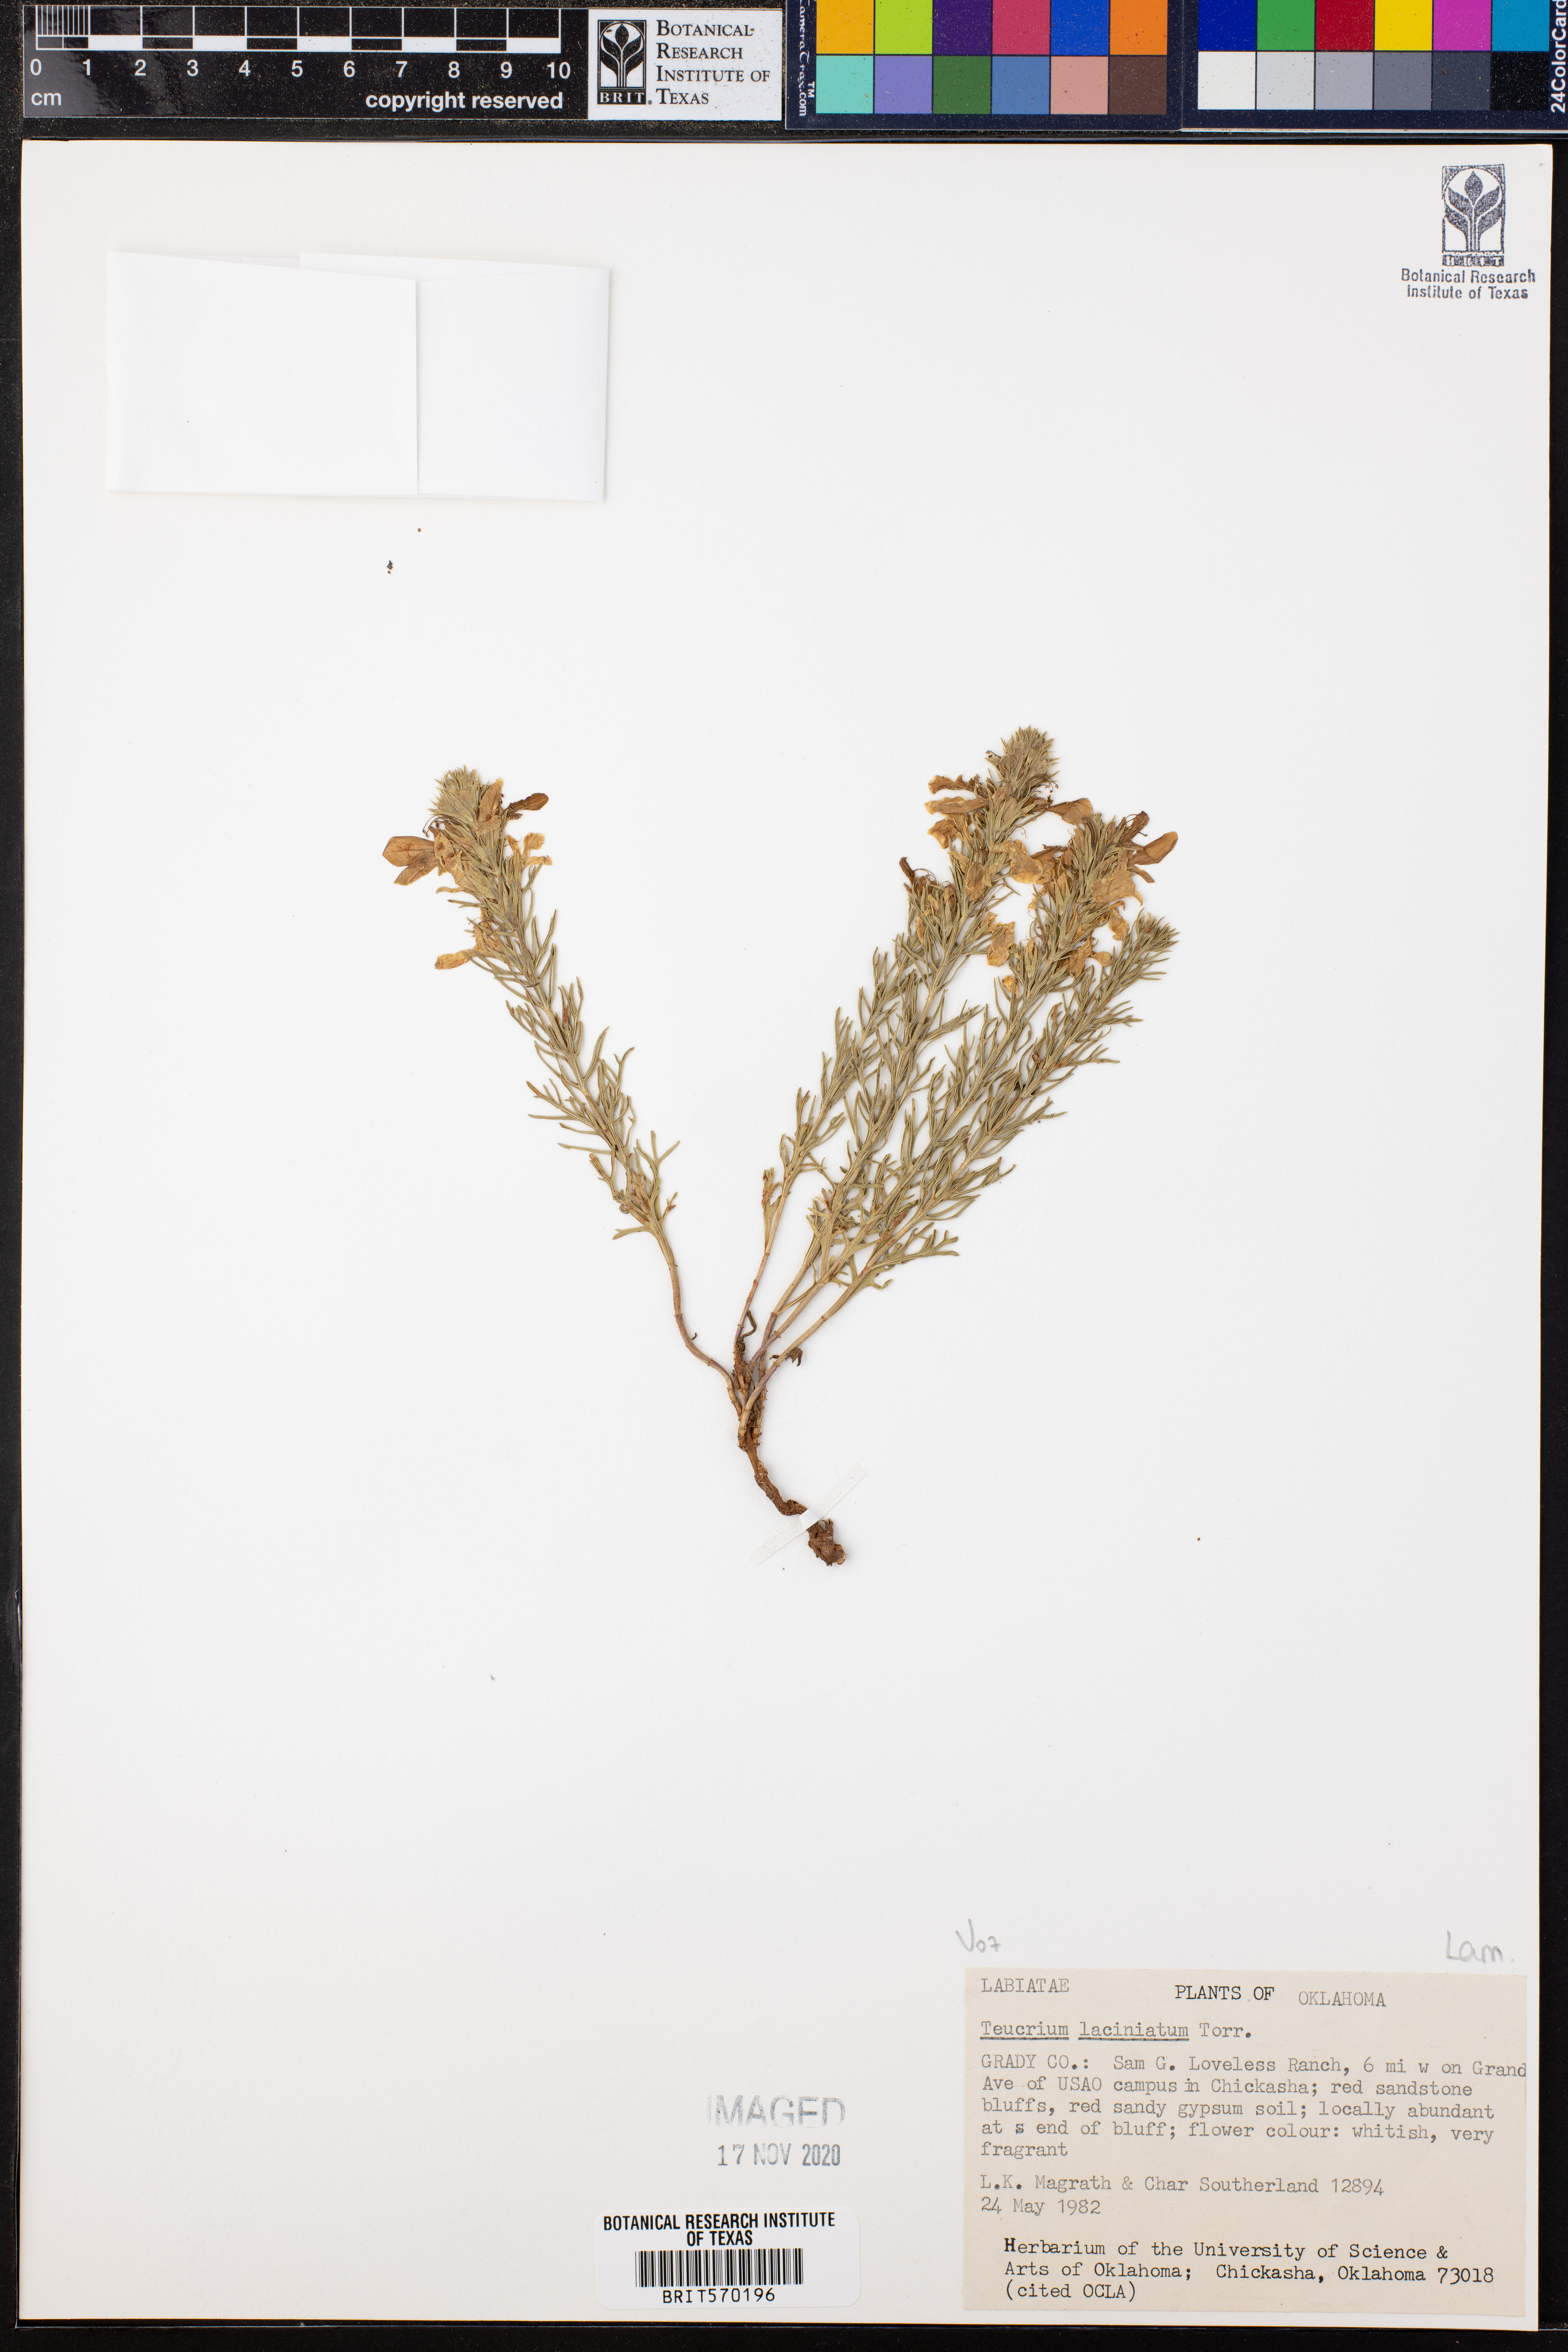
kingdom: Plantae
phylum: Tracheophyta
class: Magnoliopsida
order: Lamiales
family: Lamiaceae
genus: Teucrium
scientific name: Teucrium laciniatum
